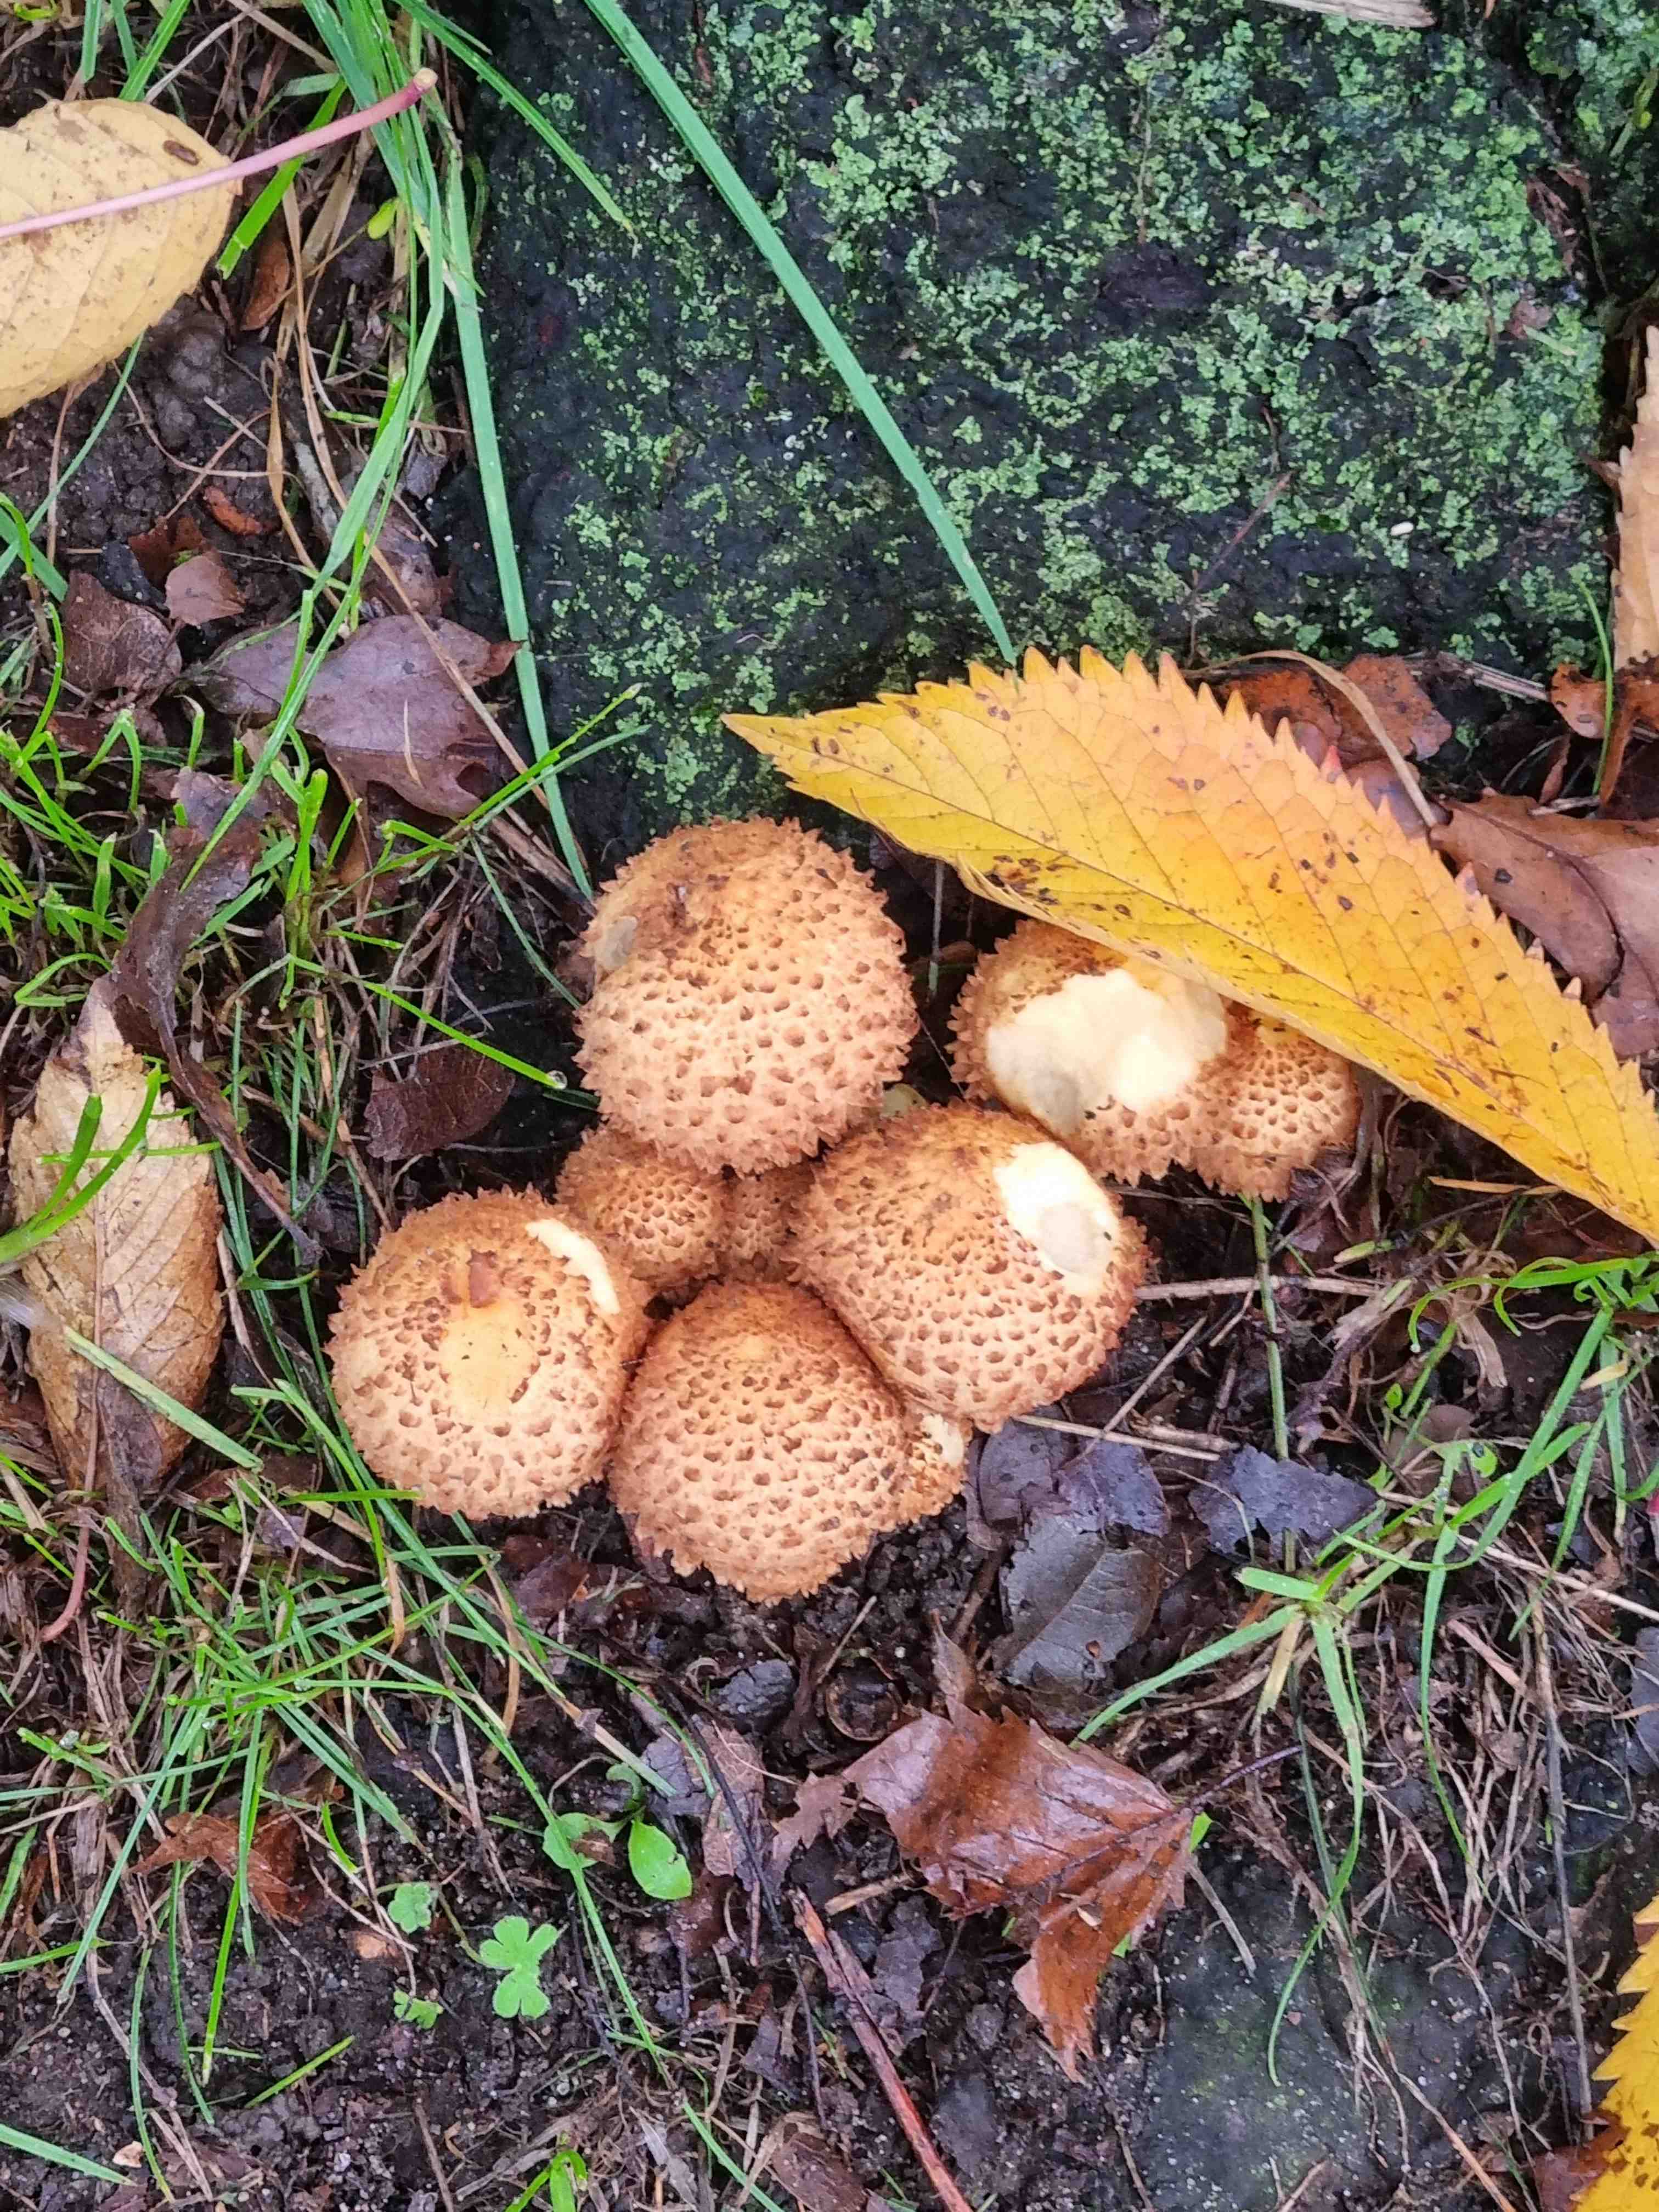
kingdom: Fungi
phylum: Basidiomycota
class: Agaricomycetes
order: Agaricales
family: Strophariaceae
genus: Pholiota
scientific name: Pholiota squarrosa
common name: krumskællet skælhat
